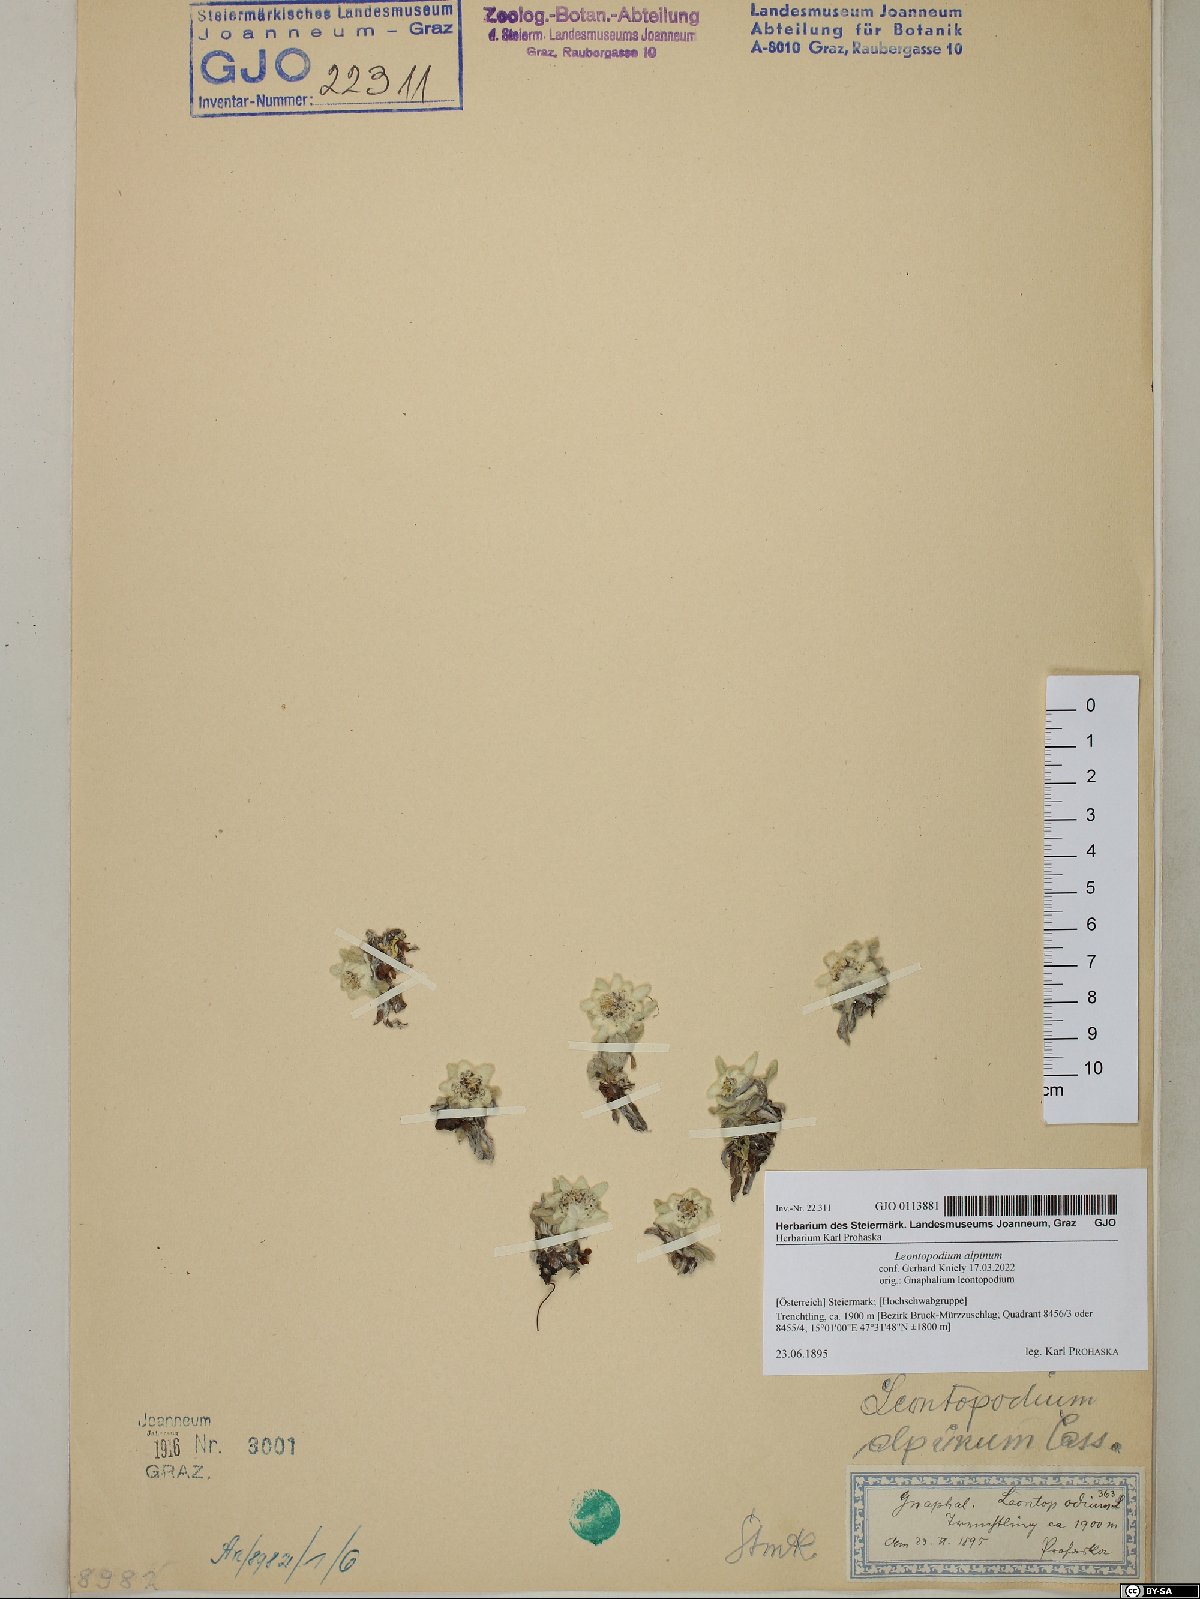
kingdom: Plantae
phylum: Tracheophyta
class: Magnoliopsida
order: Asterales
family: Asteraceae
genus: Leontopodium
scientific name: Leontopodium nivale
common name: Edelweiss
